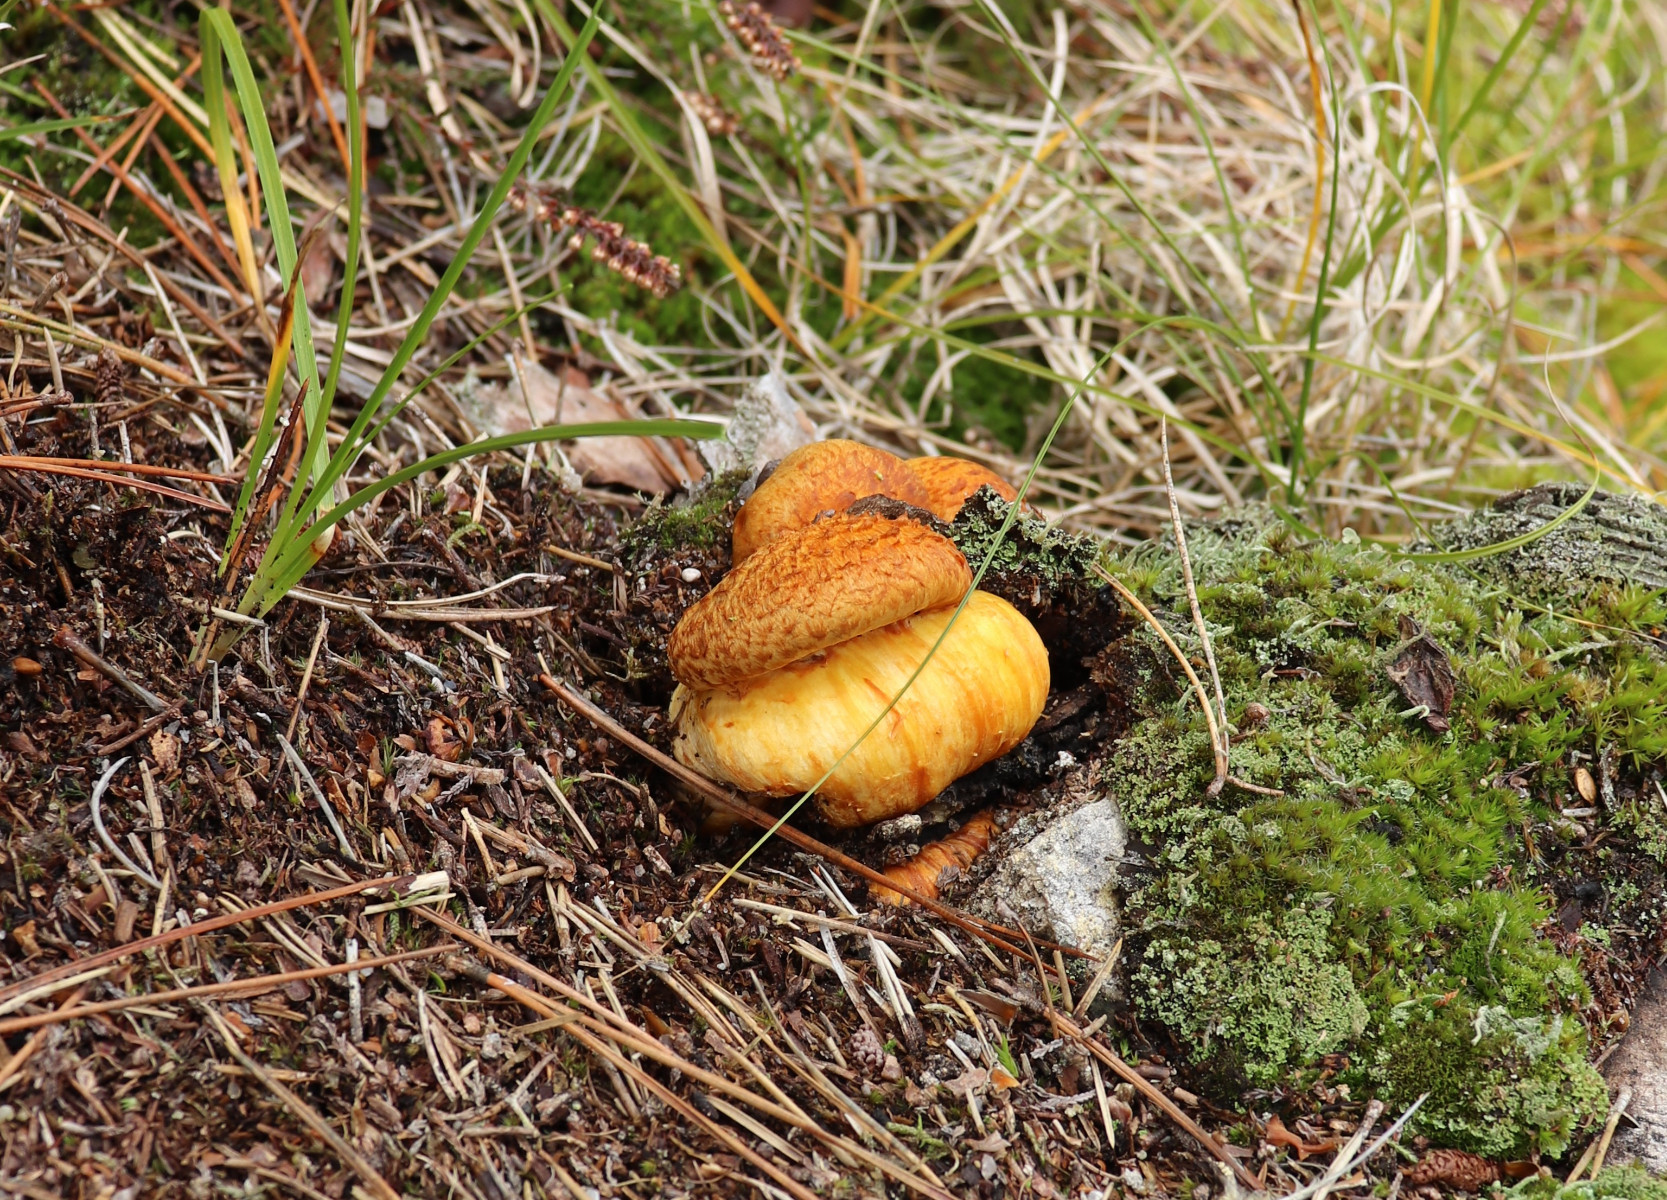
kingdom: Fungi
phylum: Basidiomycota
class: Agaricomycetes
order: Agaricales
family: Hymenogastraceae
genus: Gymnopilus
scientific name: Gymnopilus
